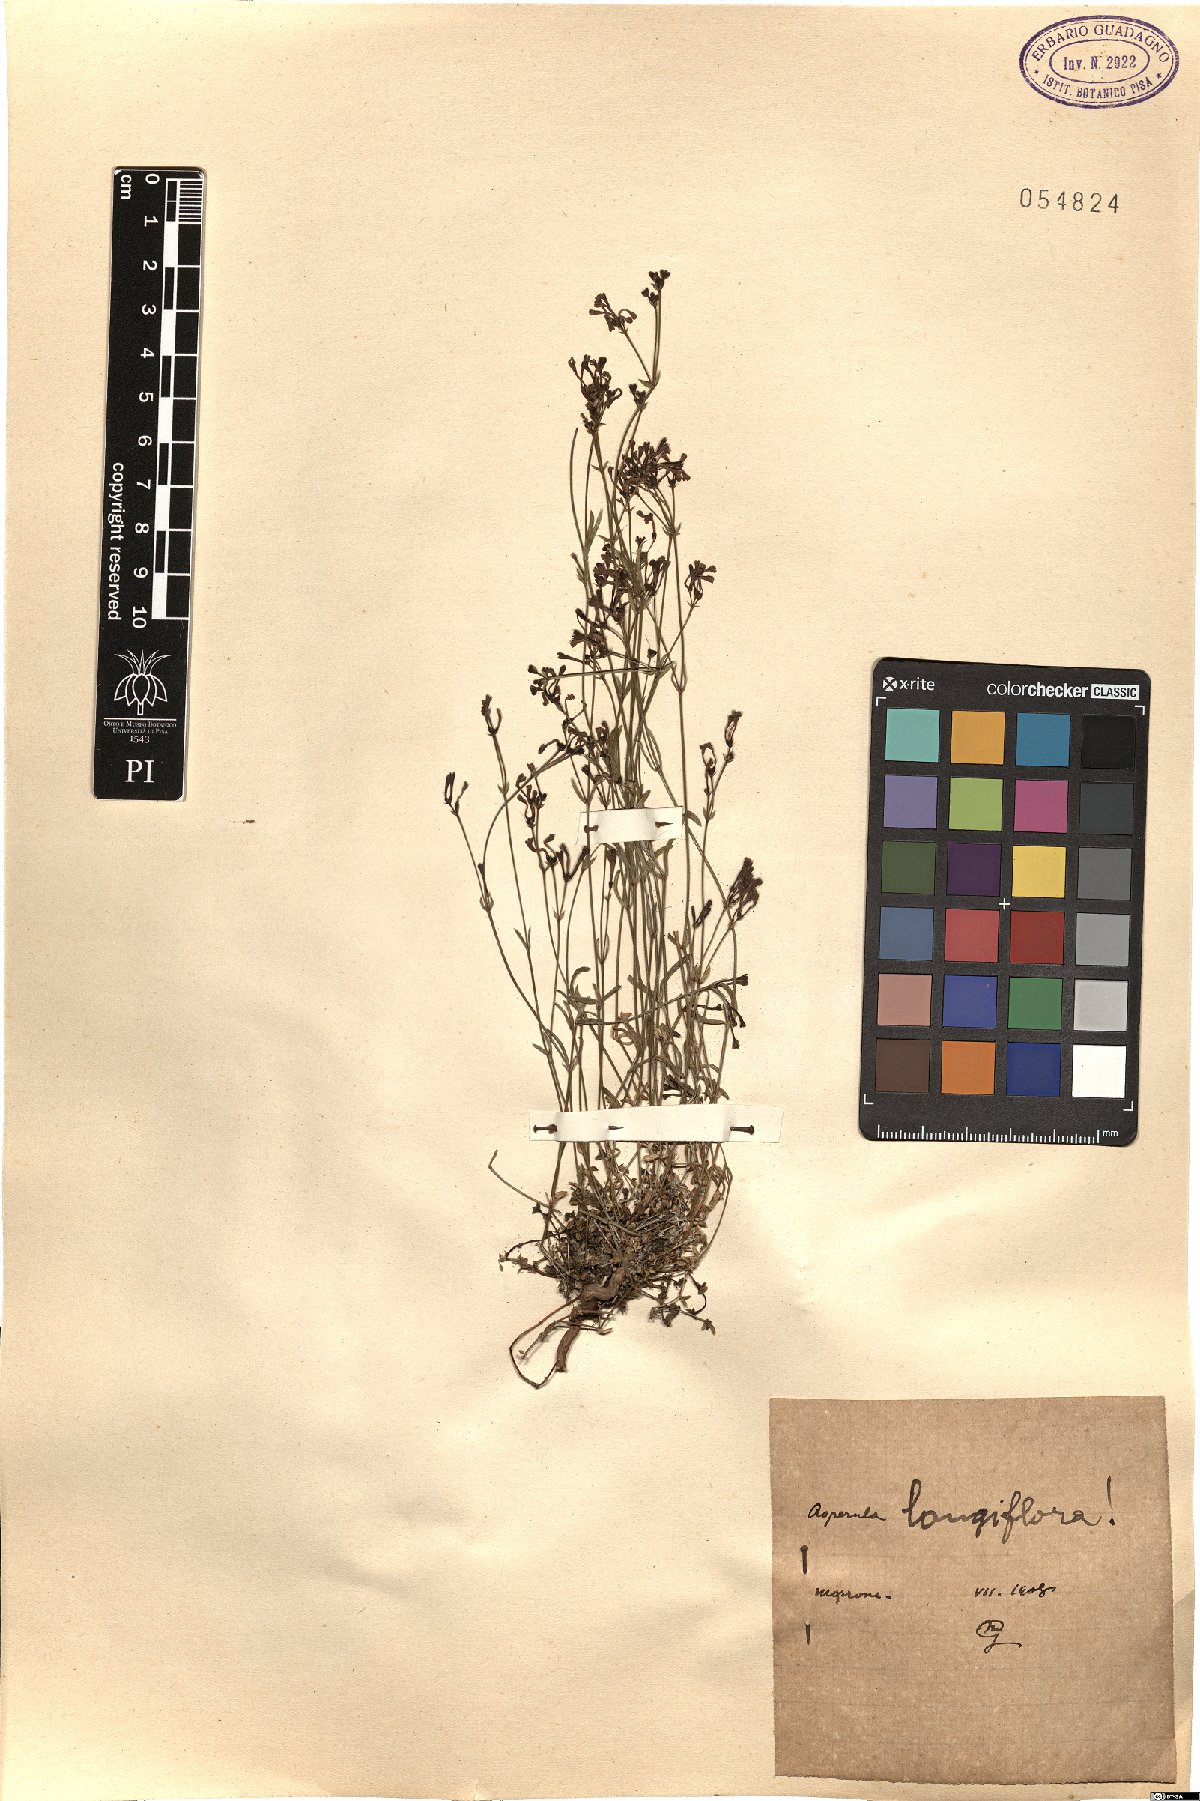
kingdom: Plantae
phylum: Tracheophyta
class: Magnoliopsida
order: Gentianales
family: Rubiaceae
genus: Cynanchica
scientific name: Cynanchica aristata
